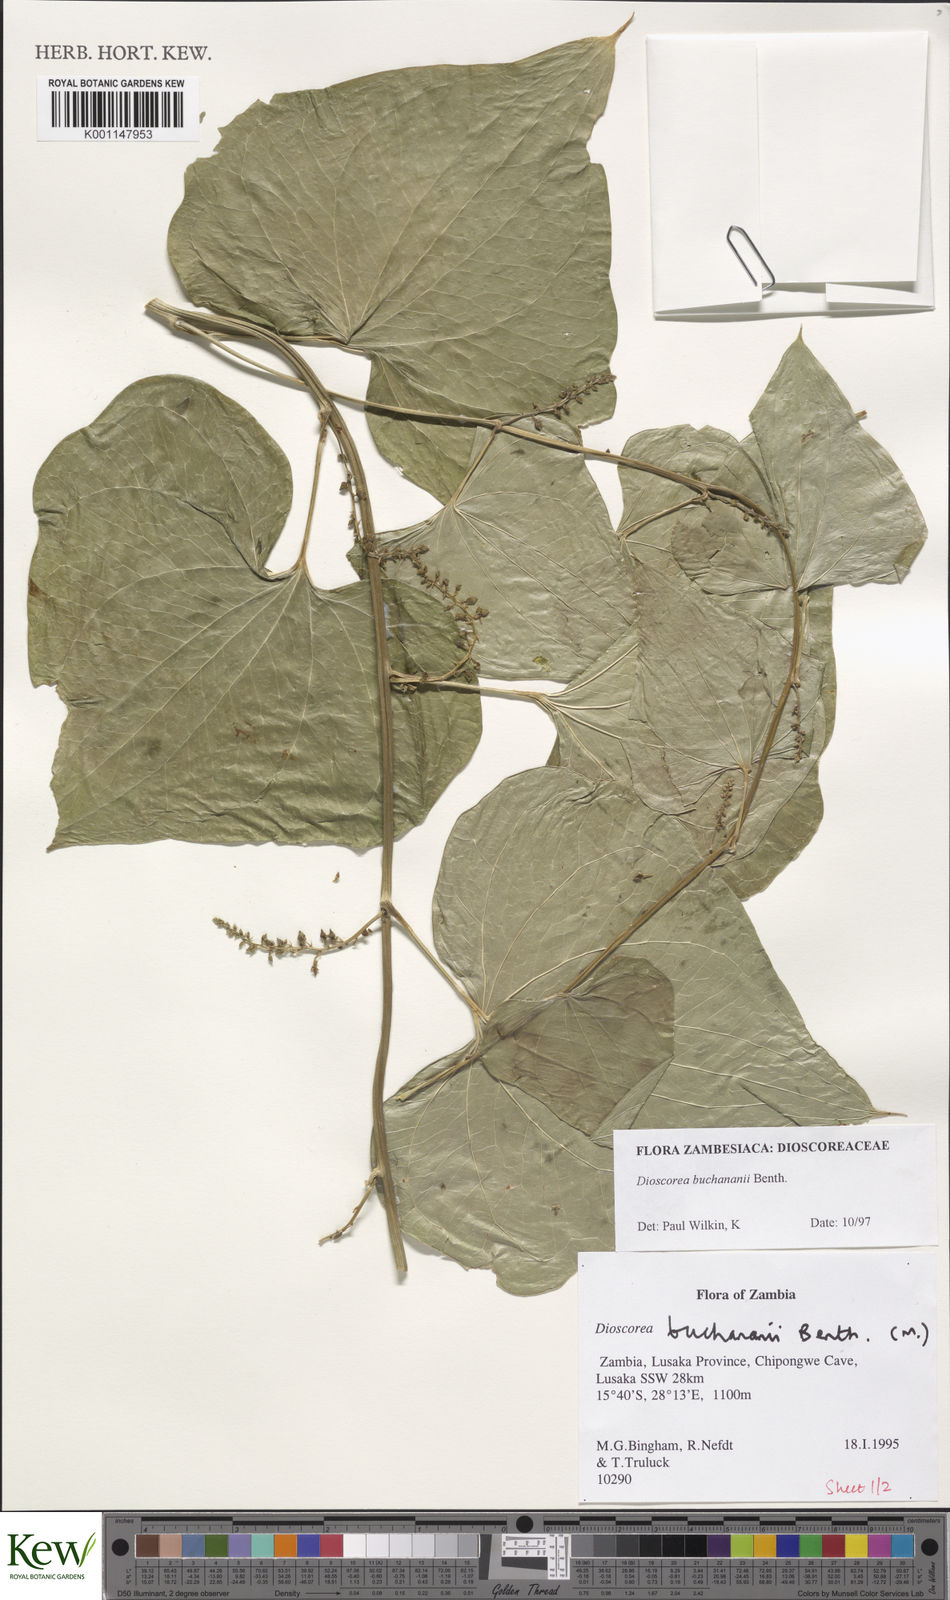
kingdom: Plantae
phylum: Tracheophyta
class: Liliopsida
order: Dioscoreales
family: Dioscoreaceae
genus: Dioscorea
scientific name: Dioscorea buchananii
